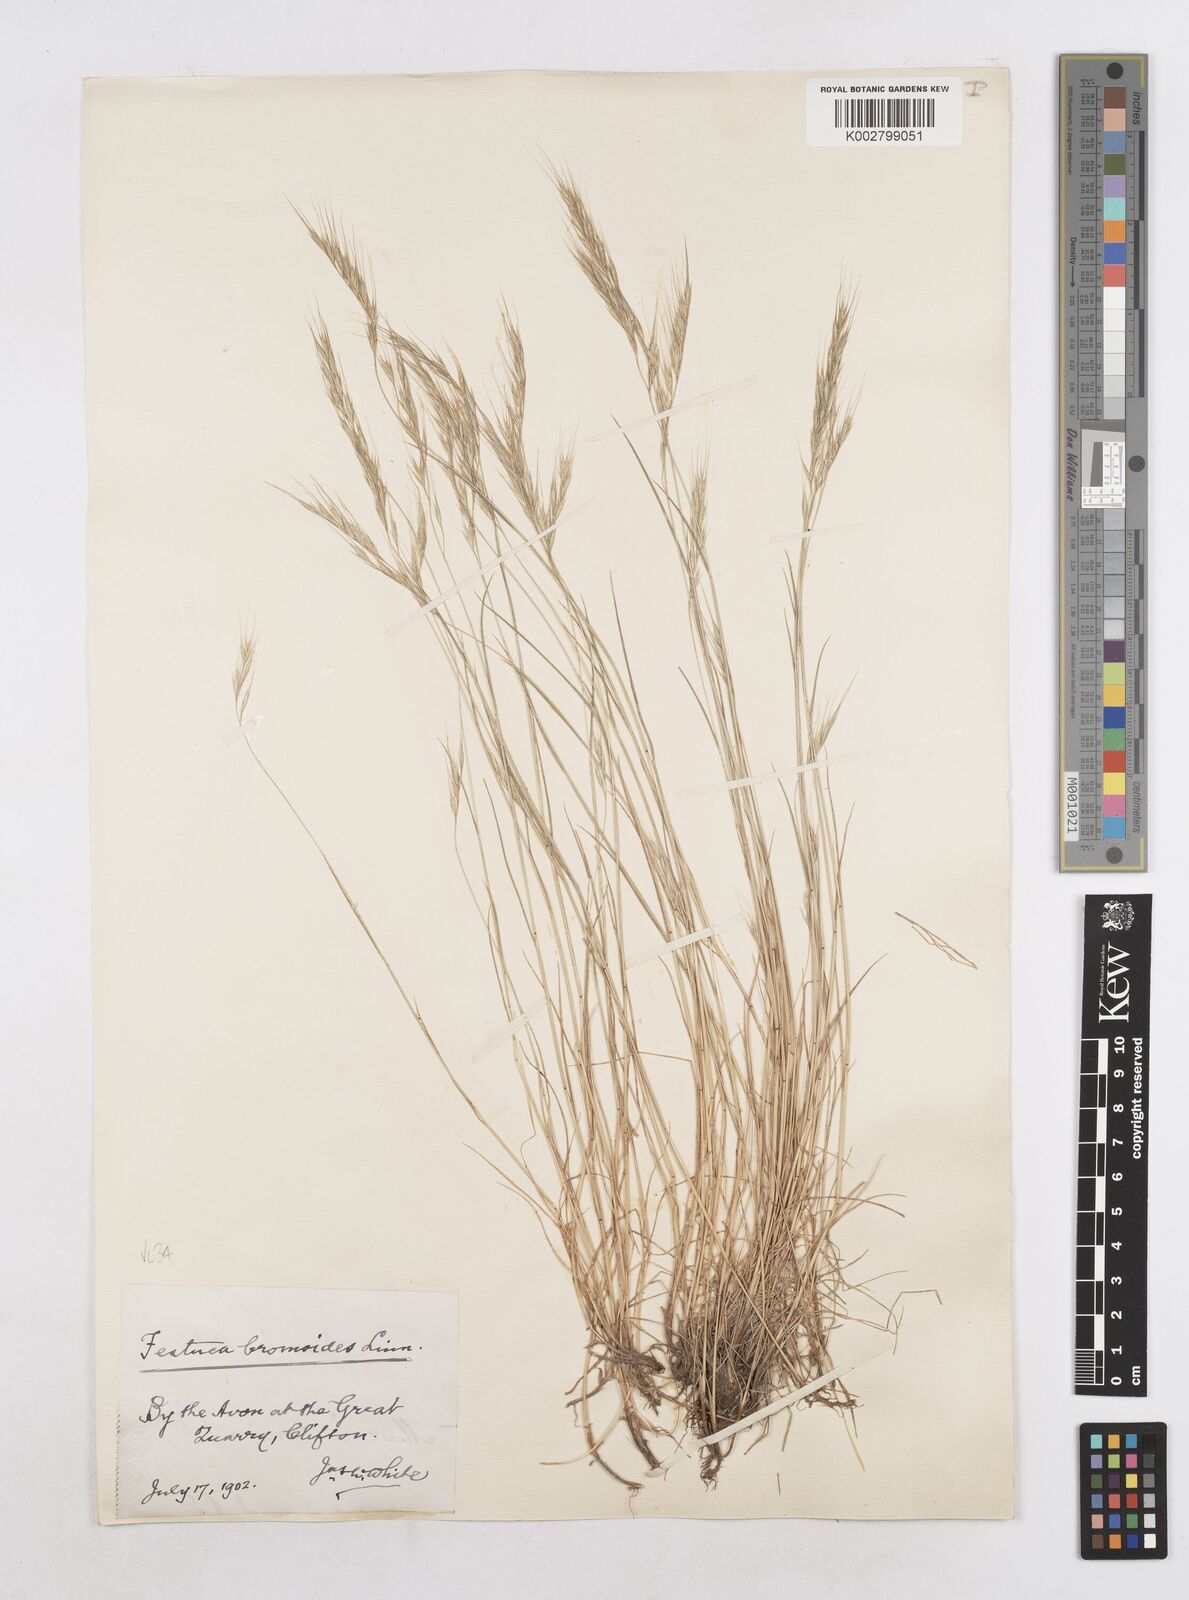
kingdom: Plantae
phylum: Tracheophyta
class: Liliopsida
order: Poales
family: Poaceae
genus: Festuca
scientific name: Festuca bromoides
